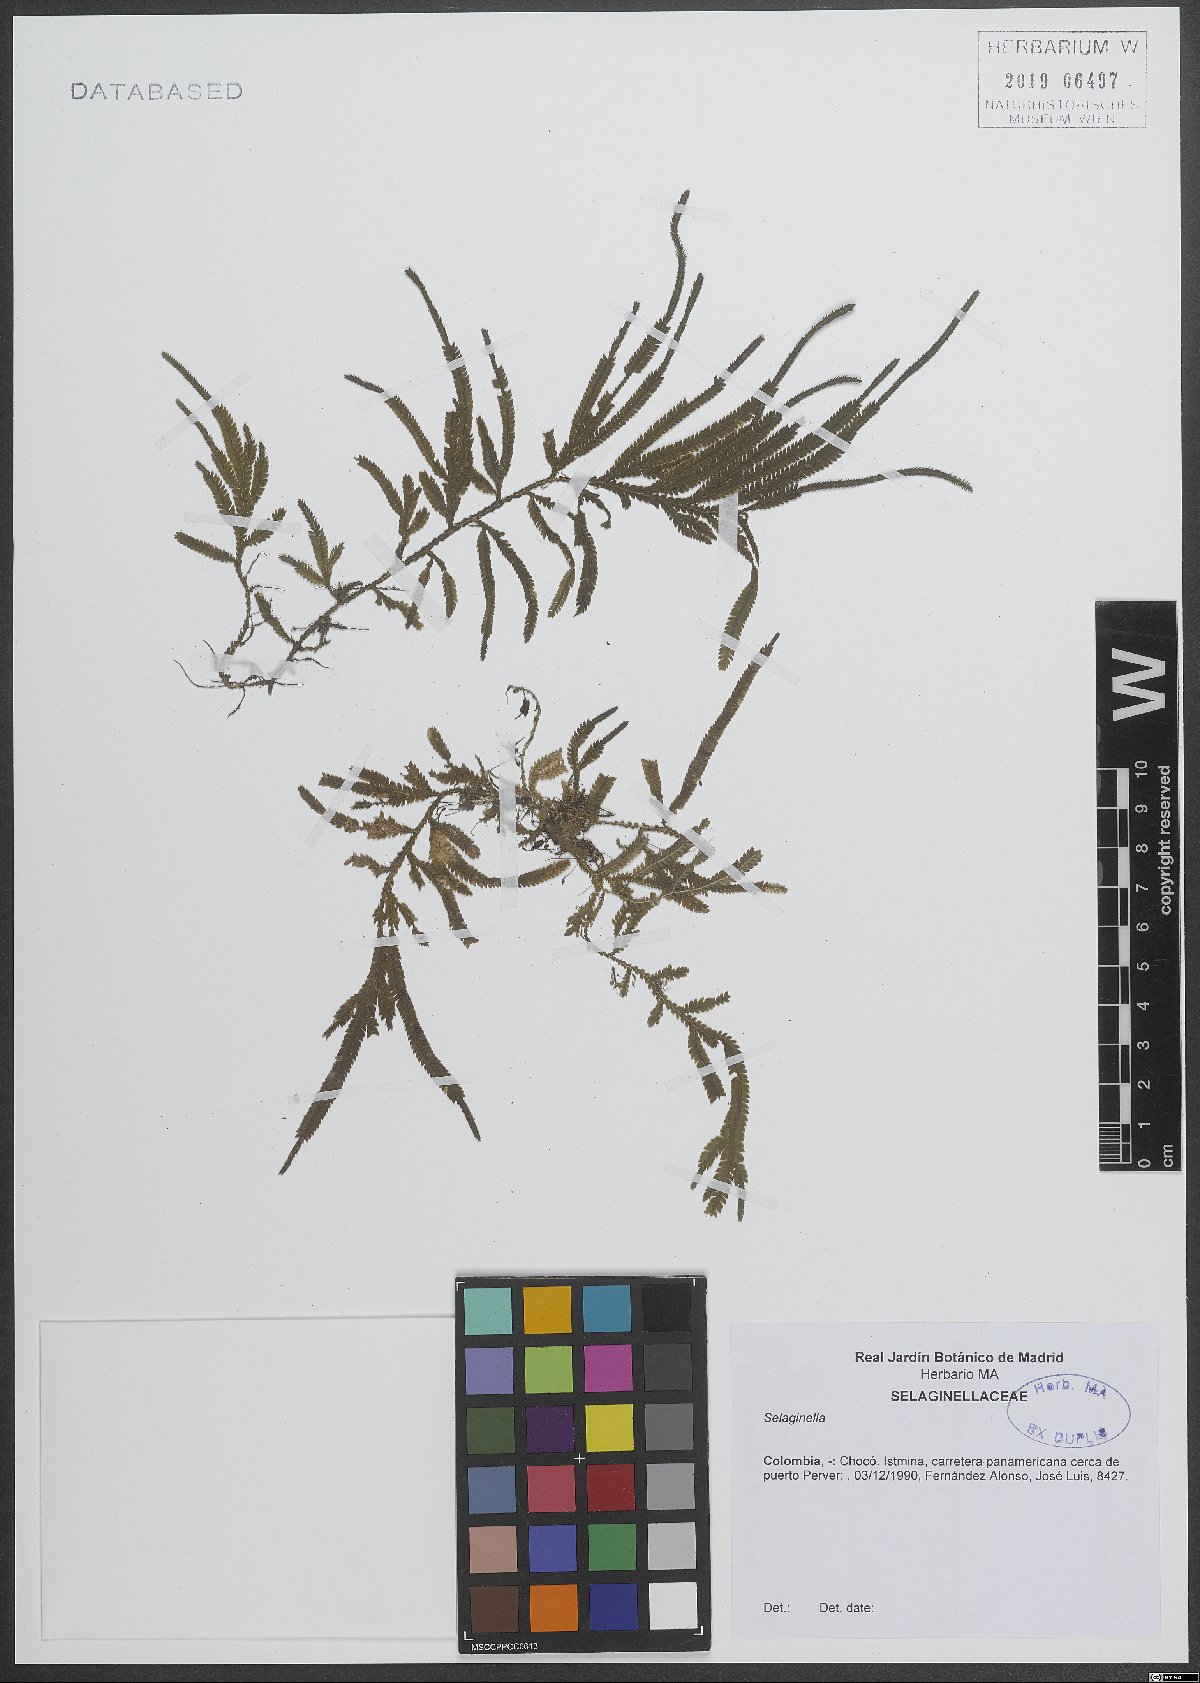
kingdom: Plantae
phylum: Tracheophyta
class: Lycopodiopsida
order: Selaginellales
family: Selaginellaceae
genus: Selaginella
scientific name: Selaginella
